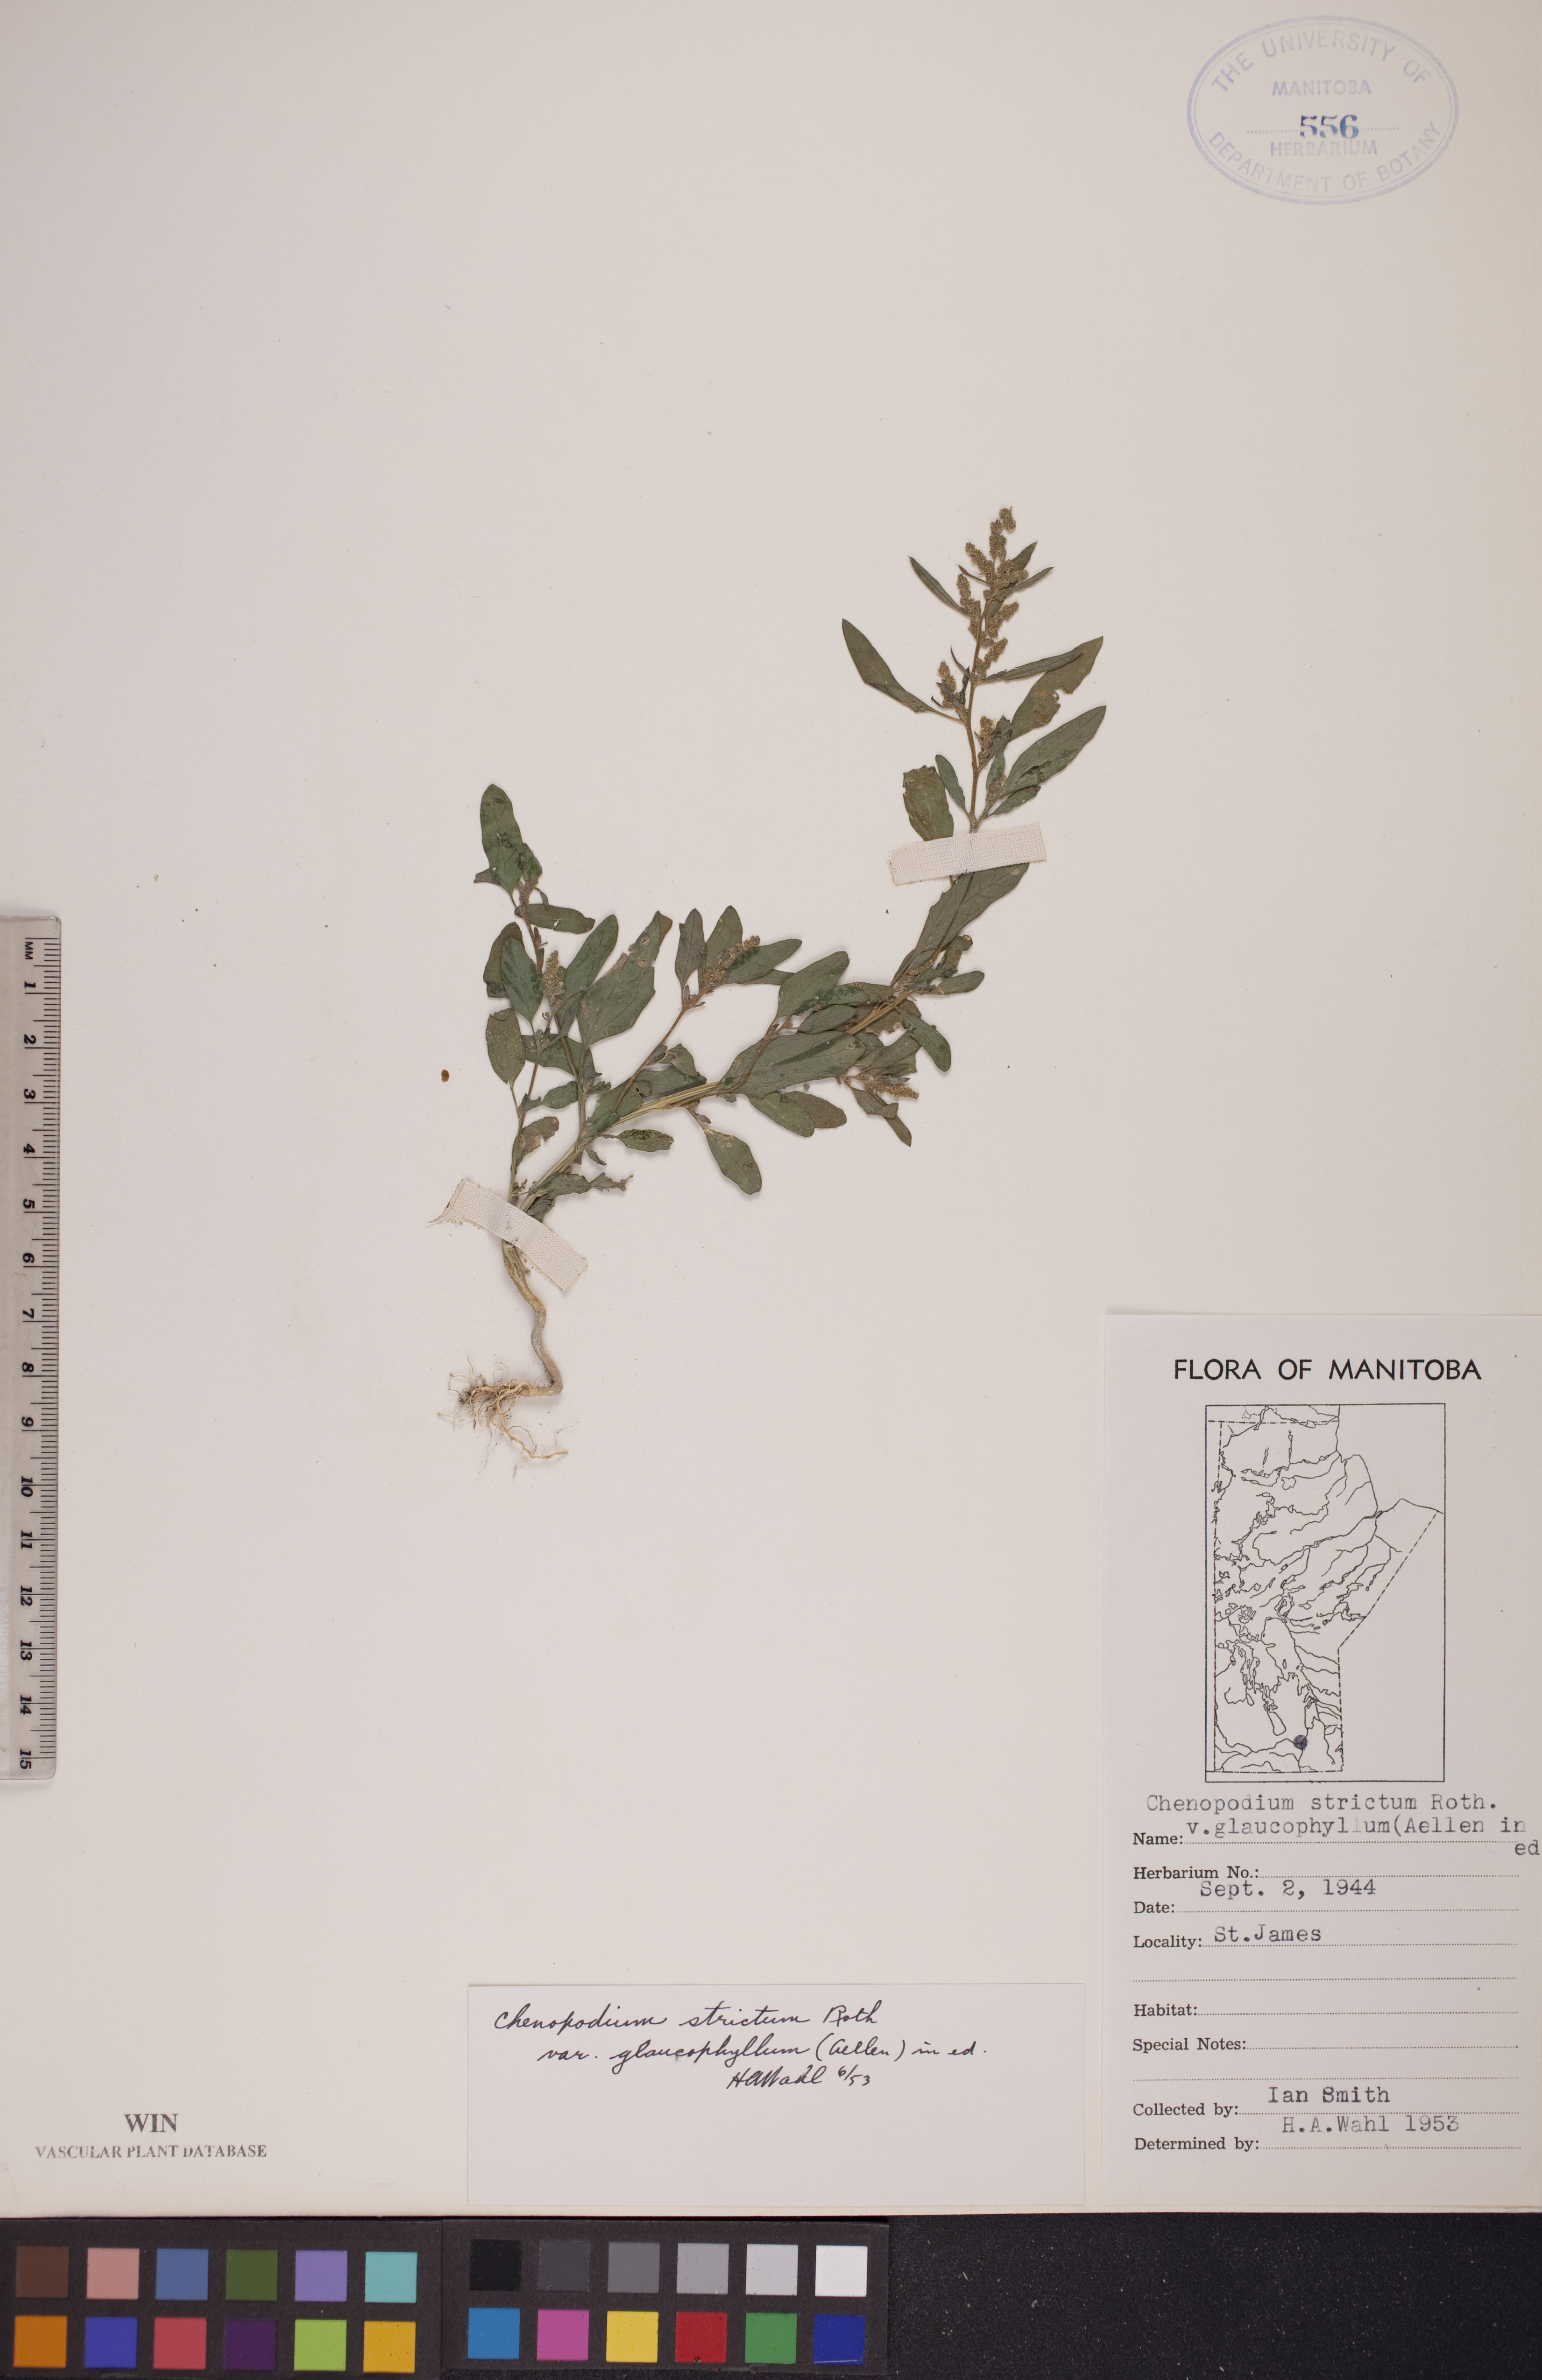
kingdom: Plantae
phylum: Tracheophyta
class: Magnoliopsida
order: Caryophyllales
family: Amaranthaceae
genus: Chenopodium
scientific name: Chenopodium betaceum
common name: Striped goosefoot
